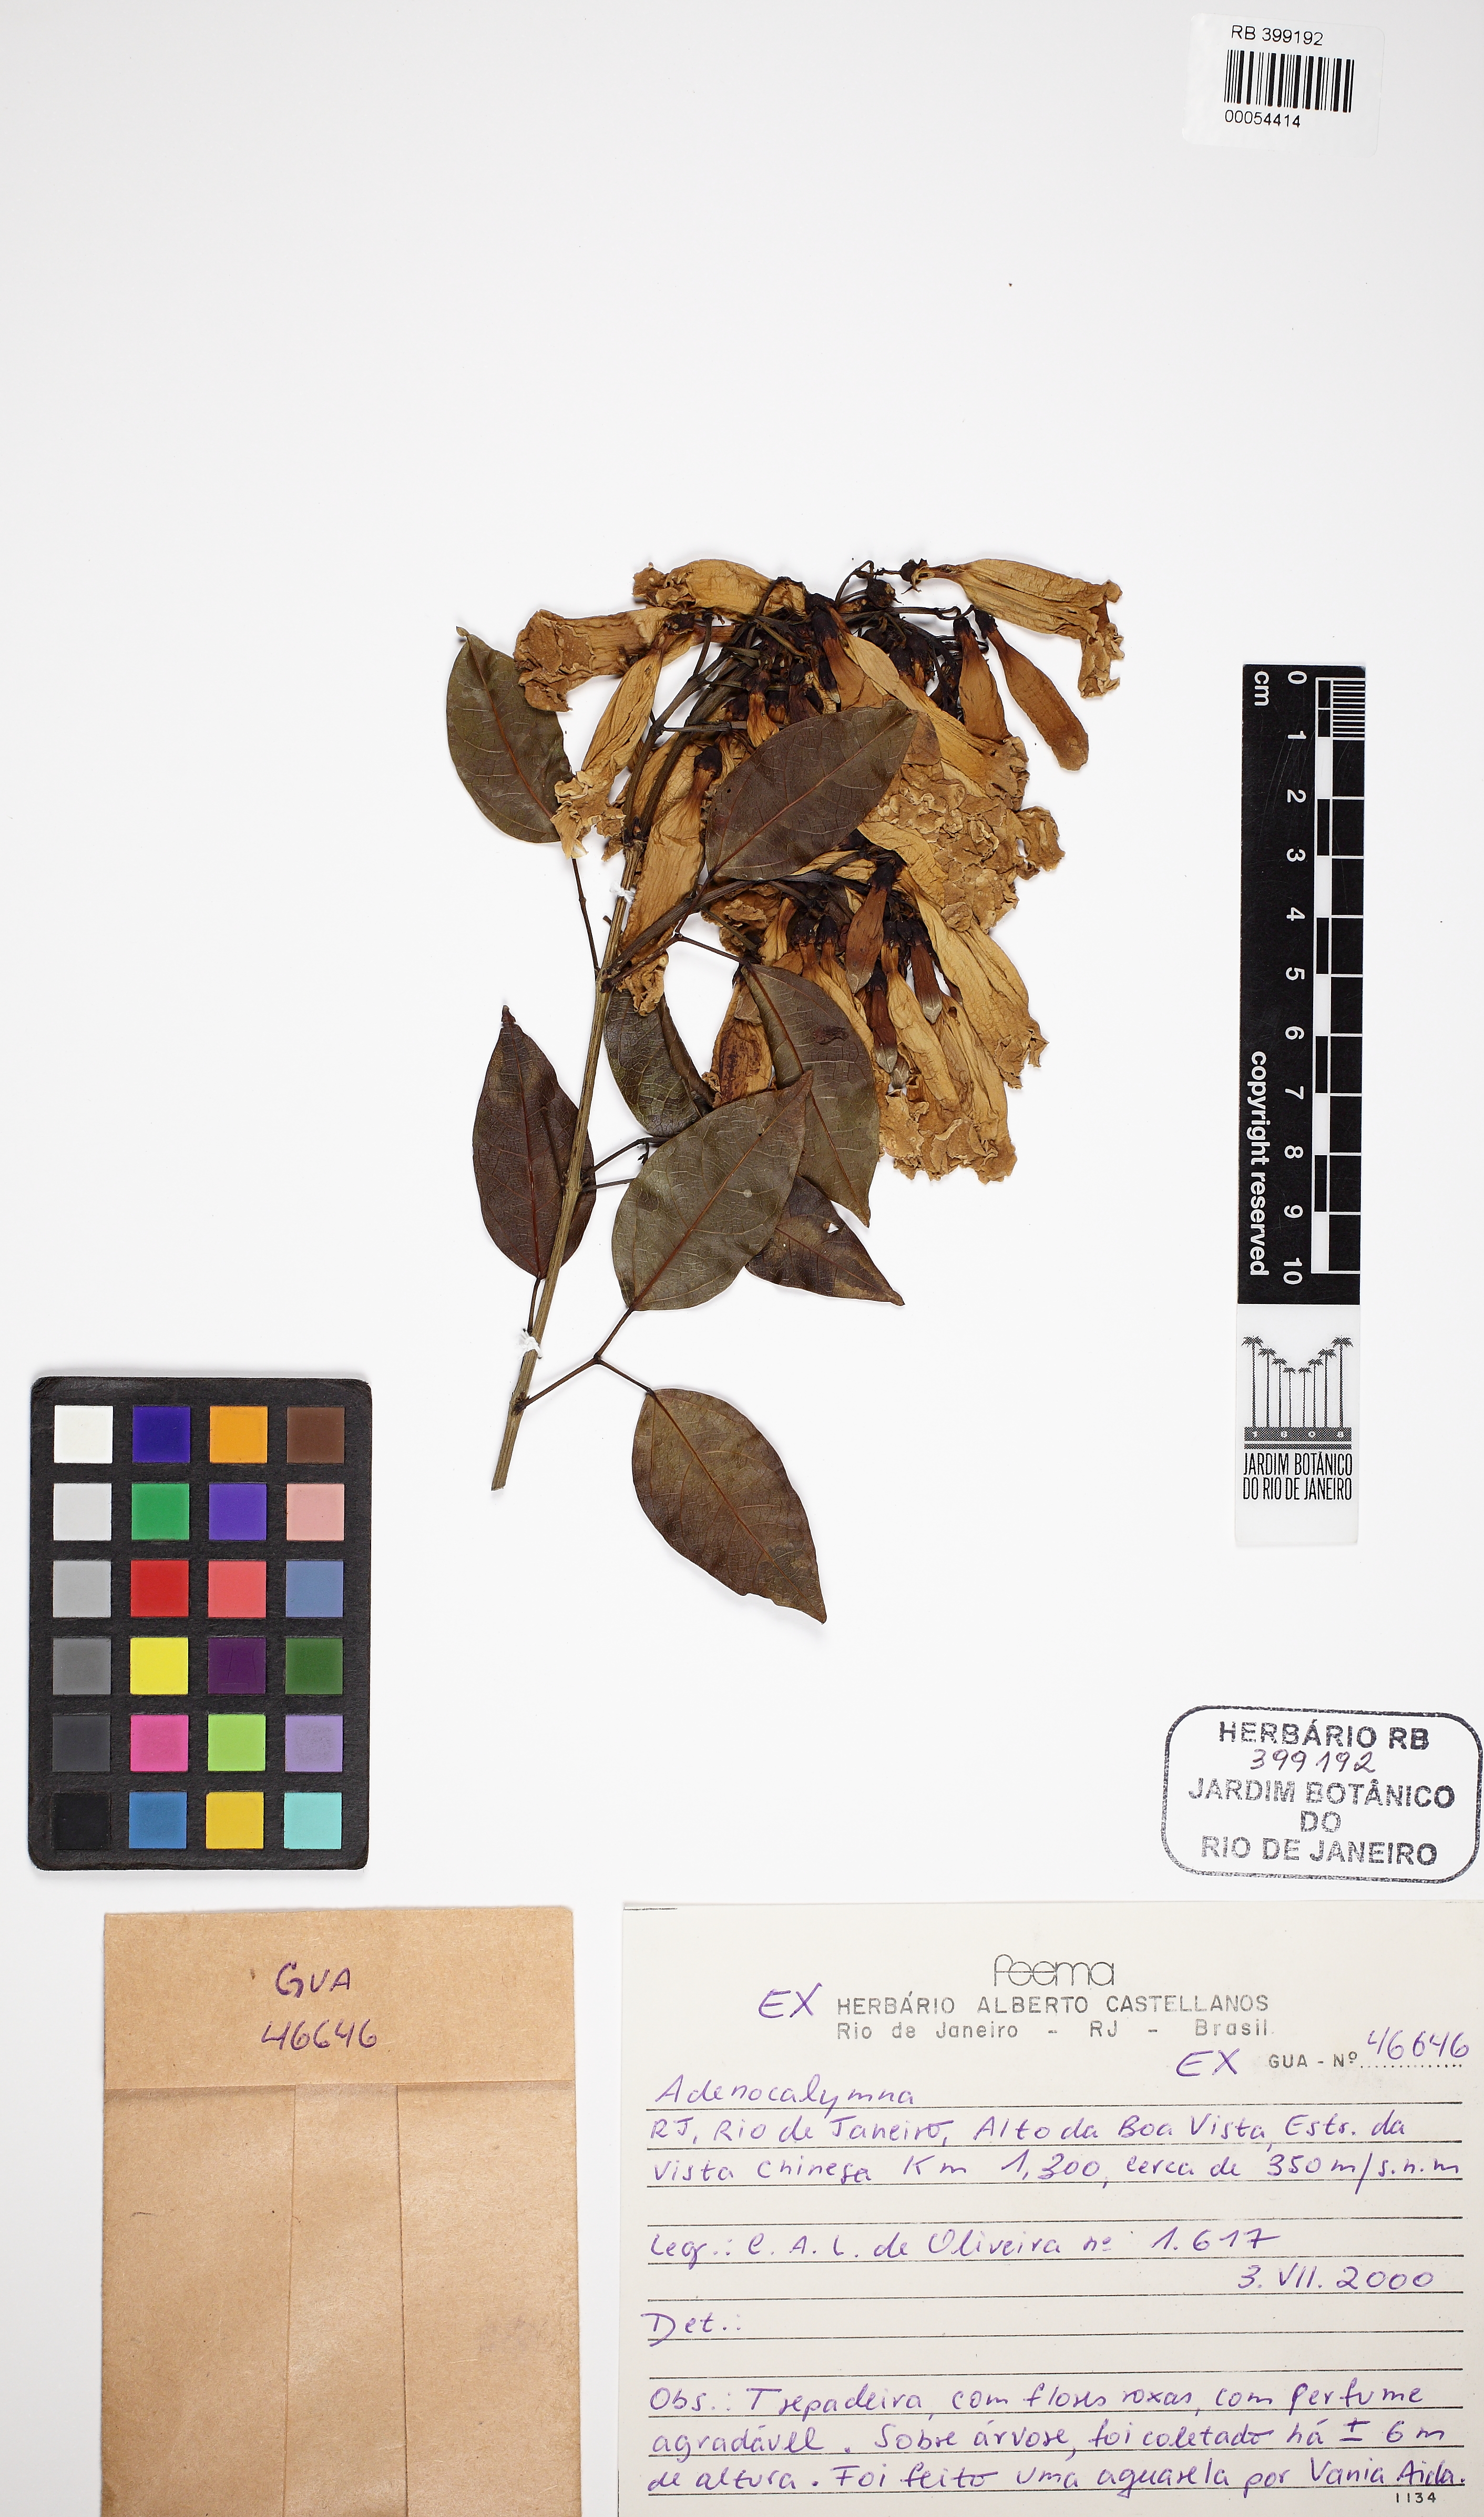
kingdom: Plantae
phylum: Tracheophyta
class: Magnoliopsida
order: Lamiales
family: Bignoniaceae
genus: Fridericia
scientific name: Fridericia chica
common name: Cricketvine
